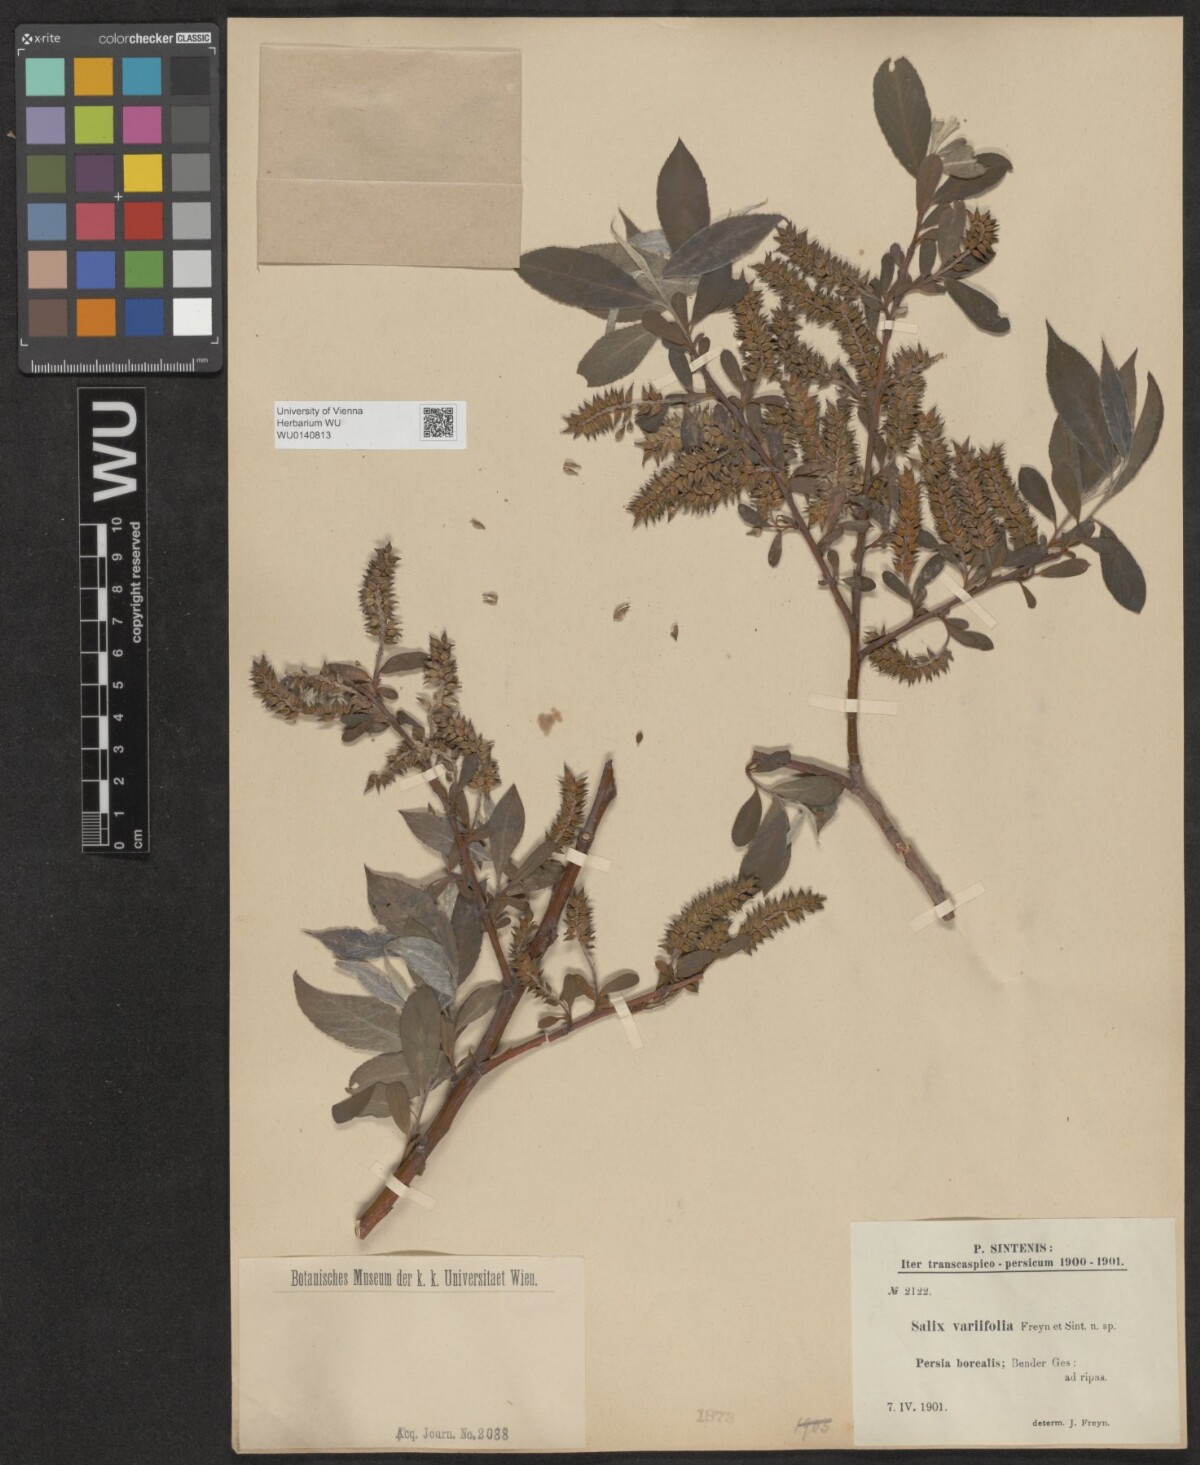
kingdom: Plantae
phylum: Tracheophyta
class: Magnoliopsida
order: Malpighiales
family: Salicaceae
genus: Salix
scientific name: Salix excelsa
